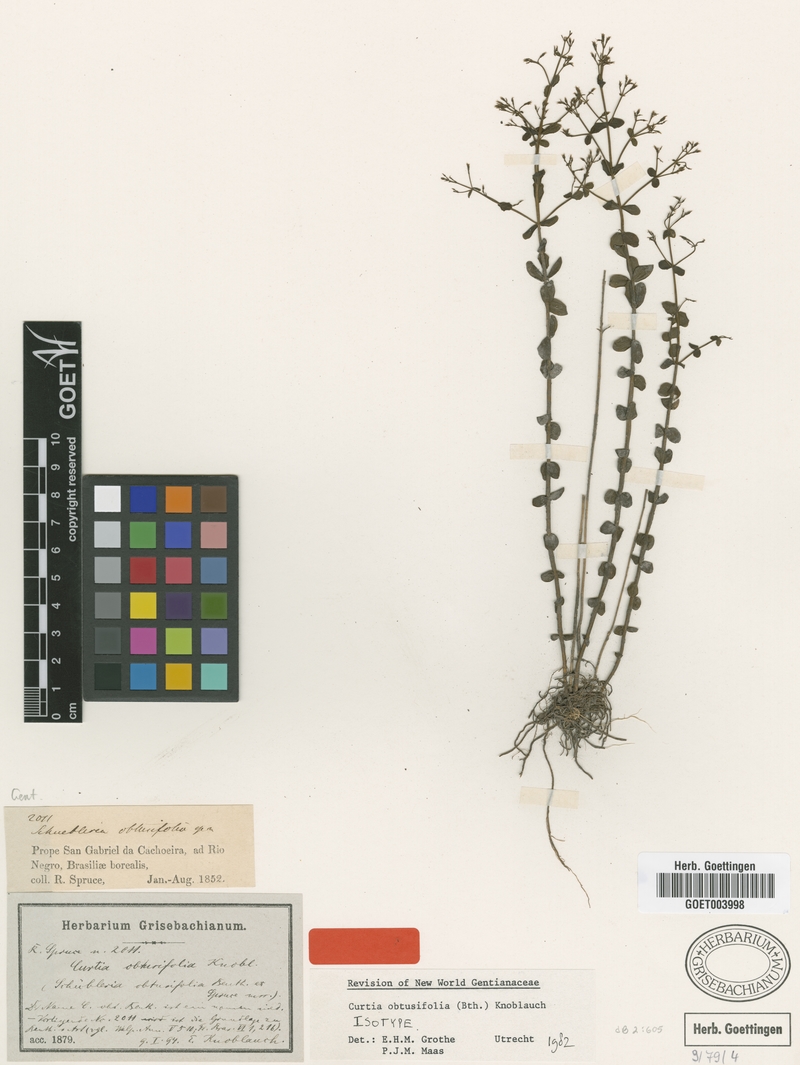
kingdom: Plantae
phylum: Tracheophyta
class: Magnoliopsida
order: Gentianales
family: Gentianaceae
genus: Curtia
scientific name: Curtia obtusifolia
